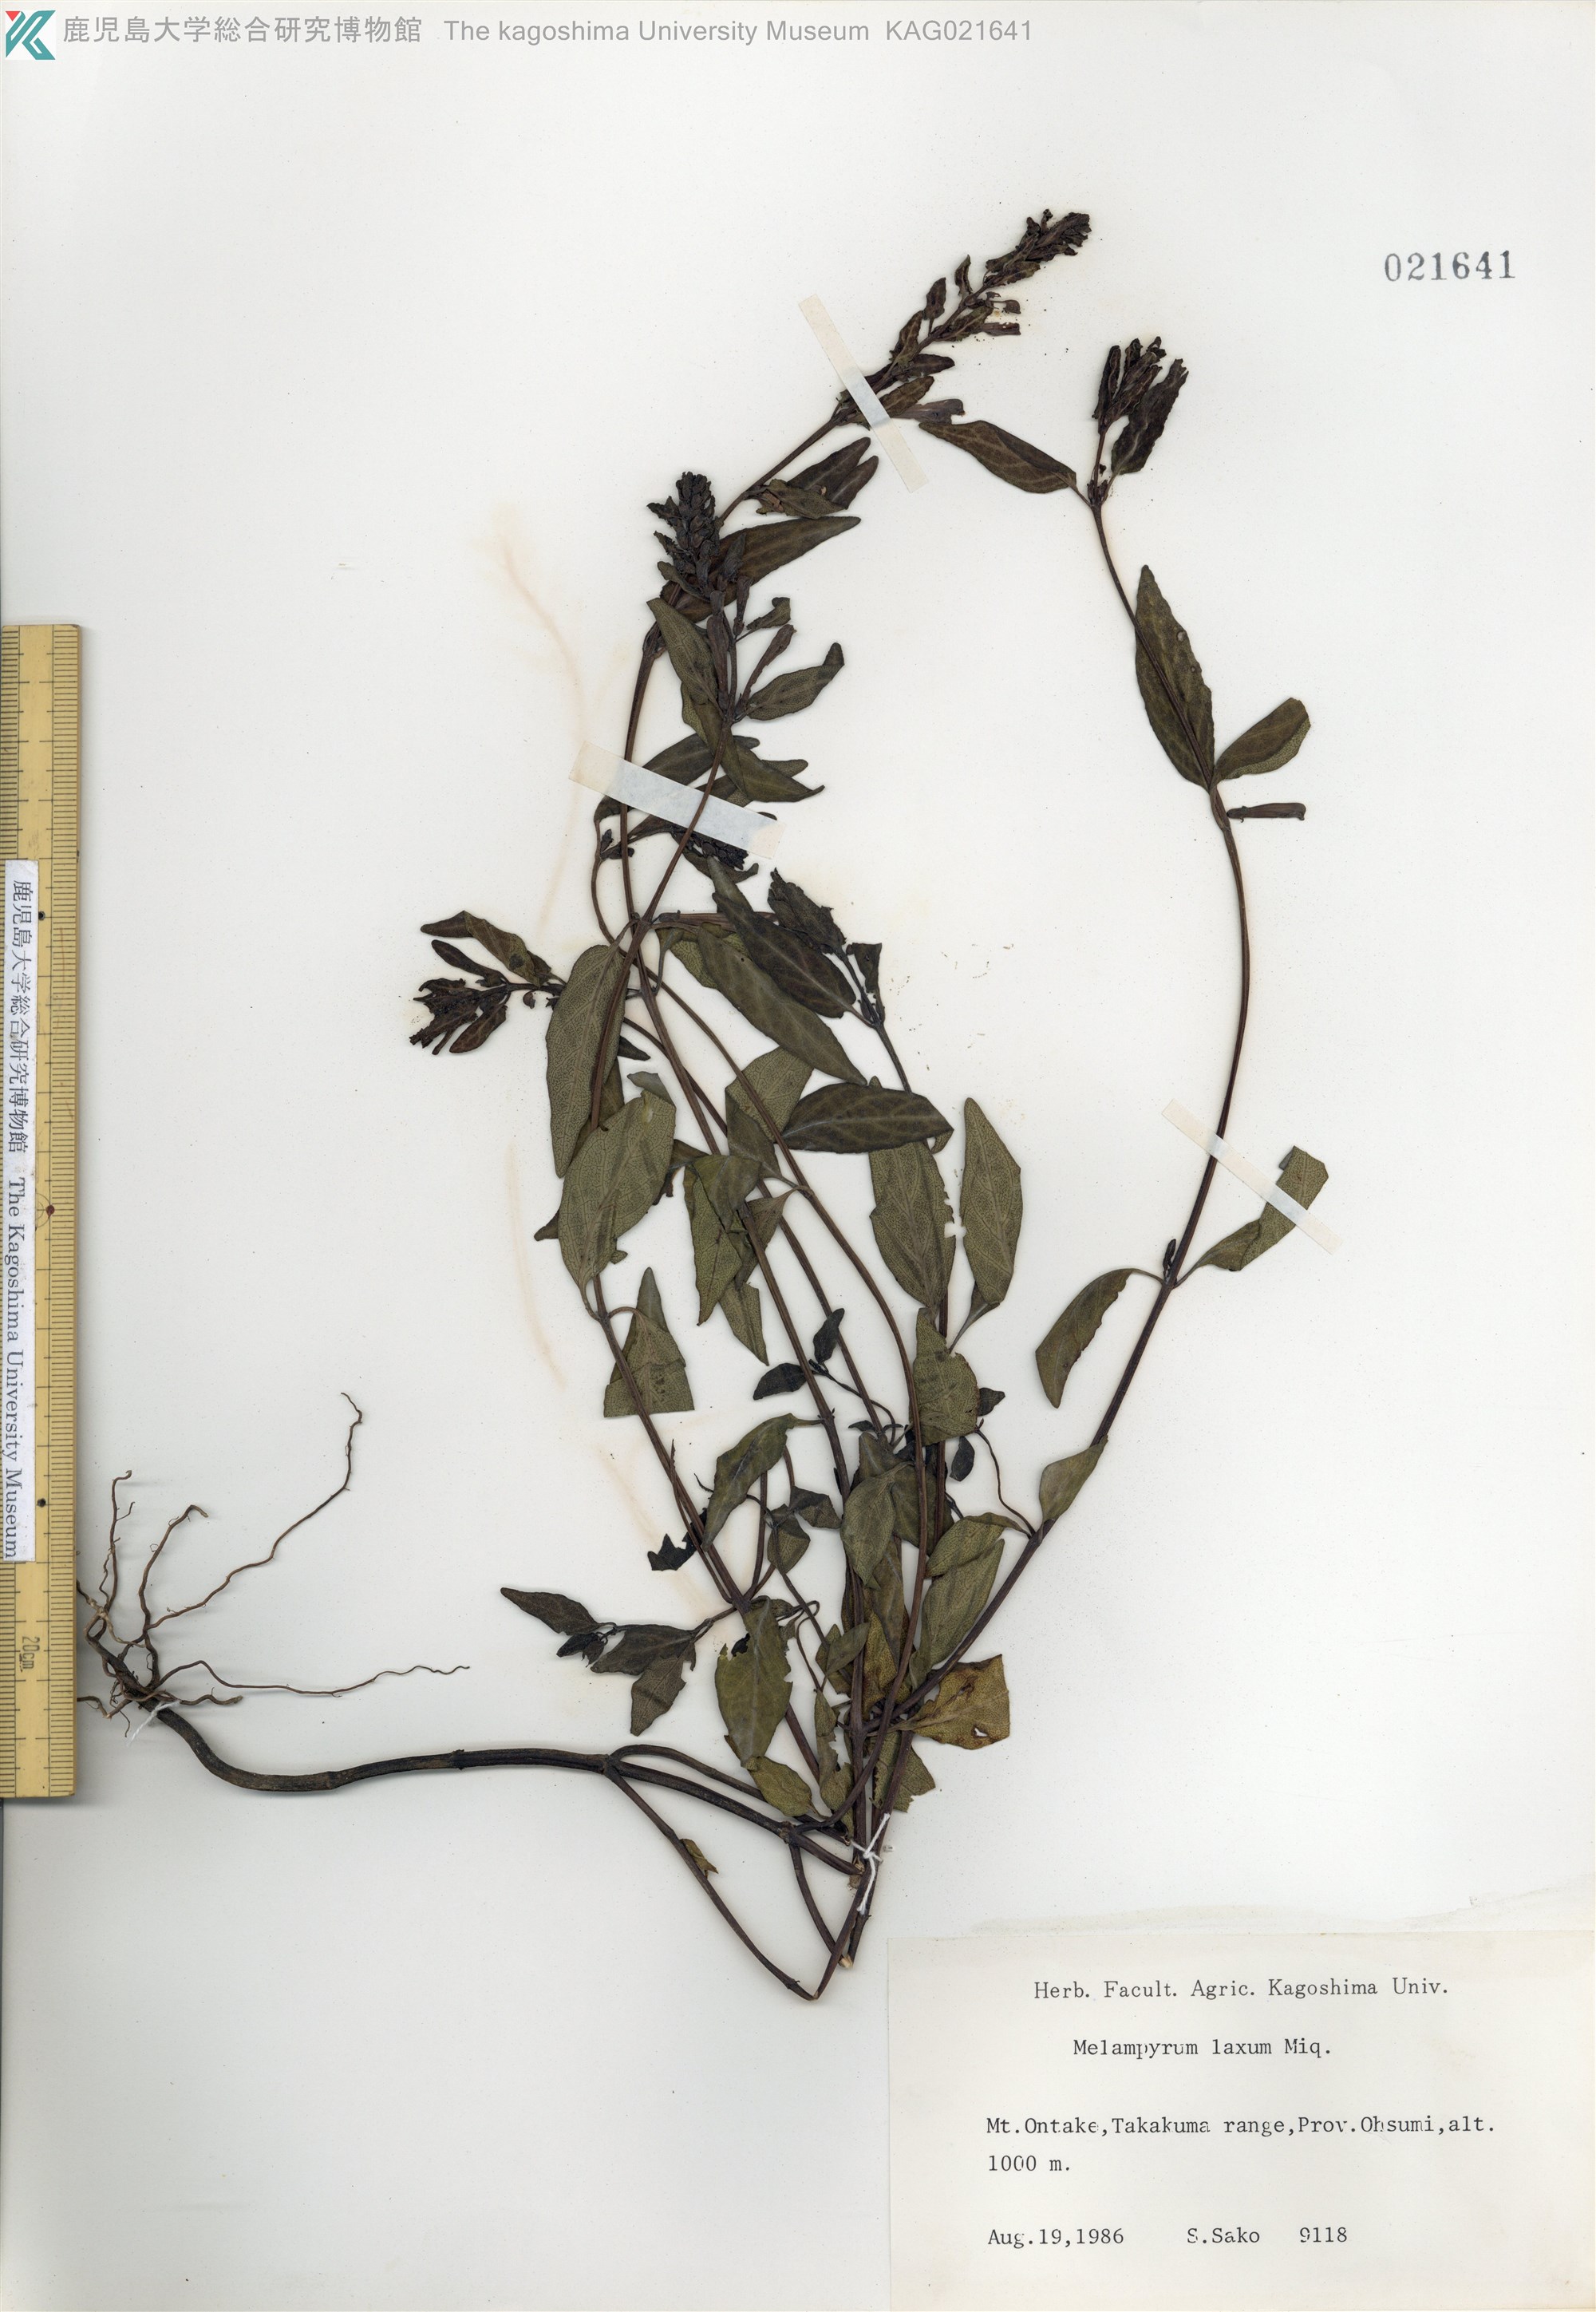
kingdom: Plantae
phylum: Tracheophyta
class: Magnoliopsida
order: Lamiales
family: Orobanchaceae
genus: Melampyrum
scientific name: Melampyrum laxum
